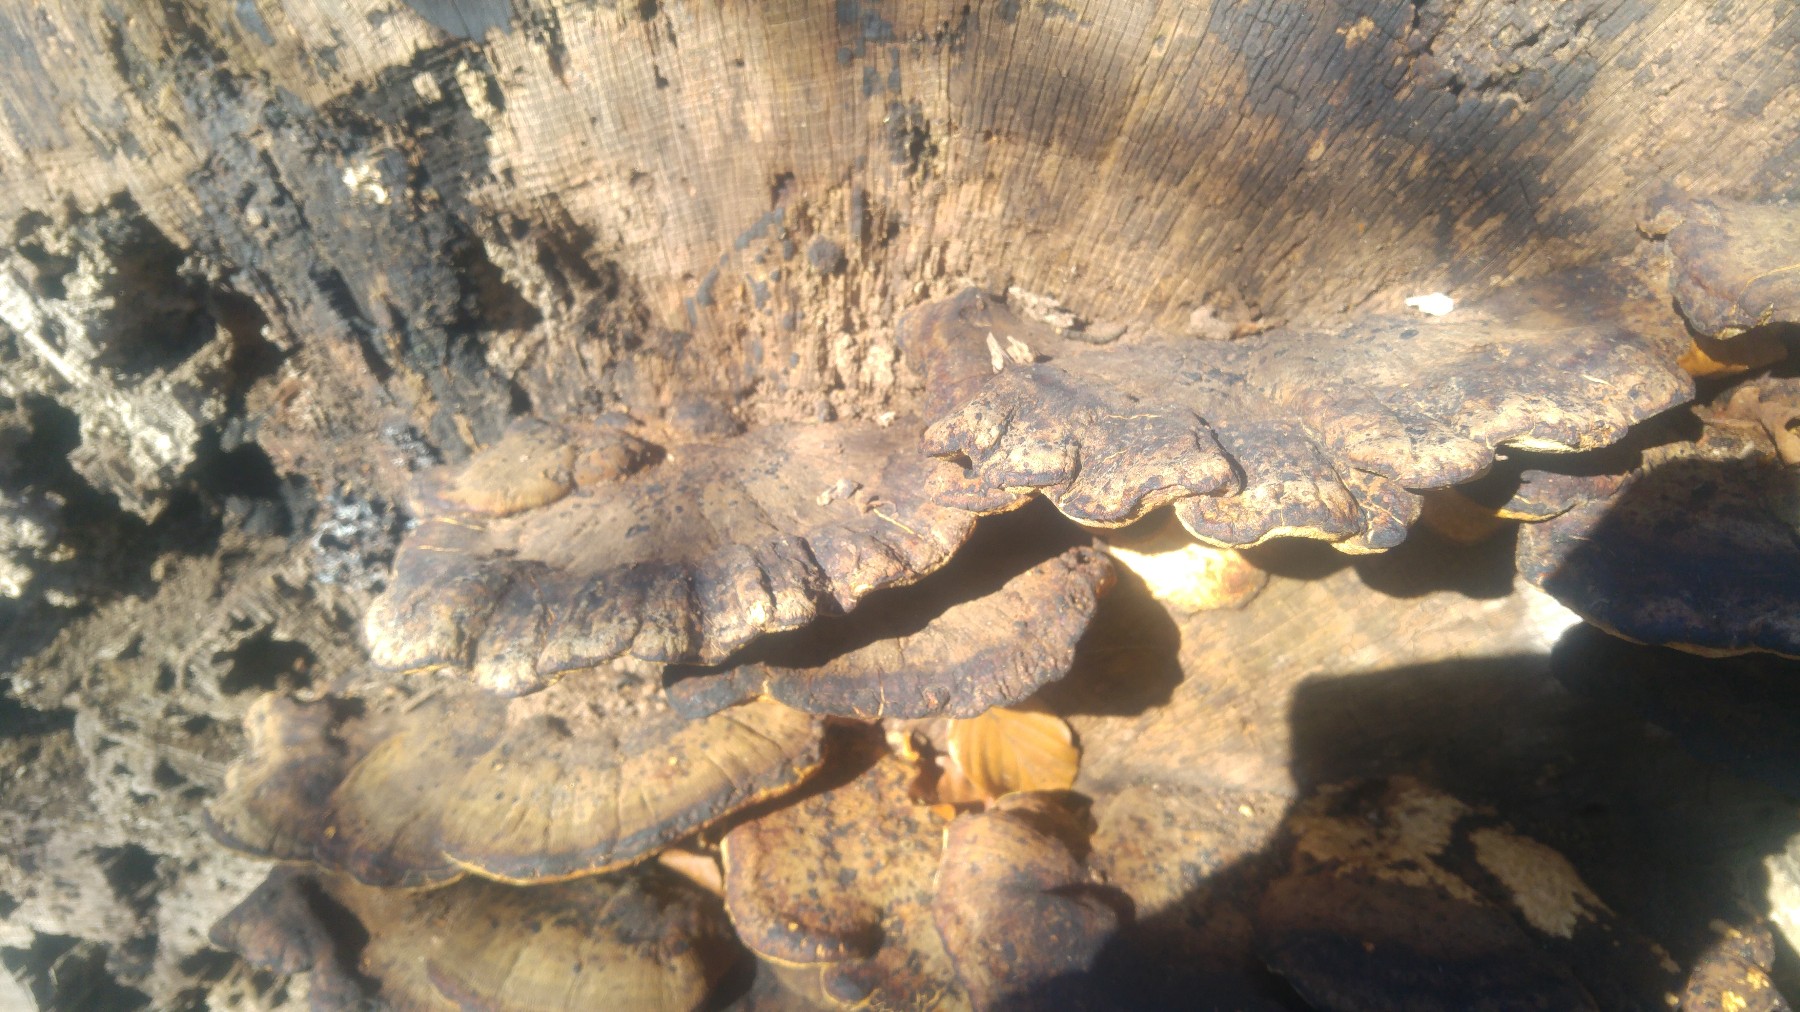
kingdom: Fungi
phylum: Basidiomycota
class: Agaricomycetes
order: Polyporales
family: Ischnodermataceae
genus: Ischnoderma
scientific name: Ischnoderma resinosum
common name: løv-tjæreporesvamp
